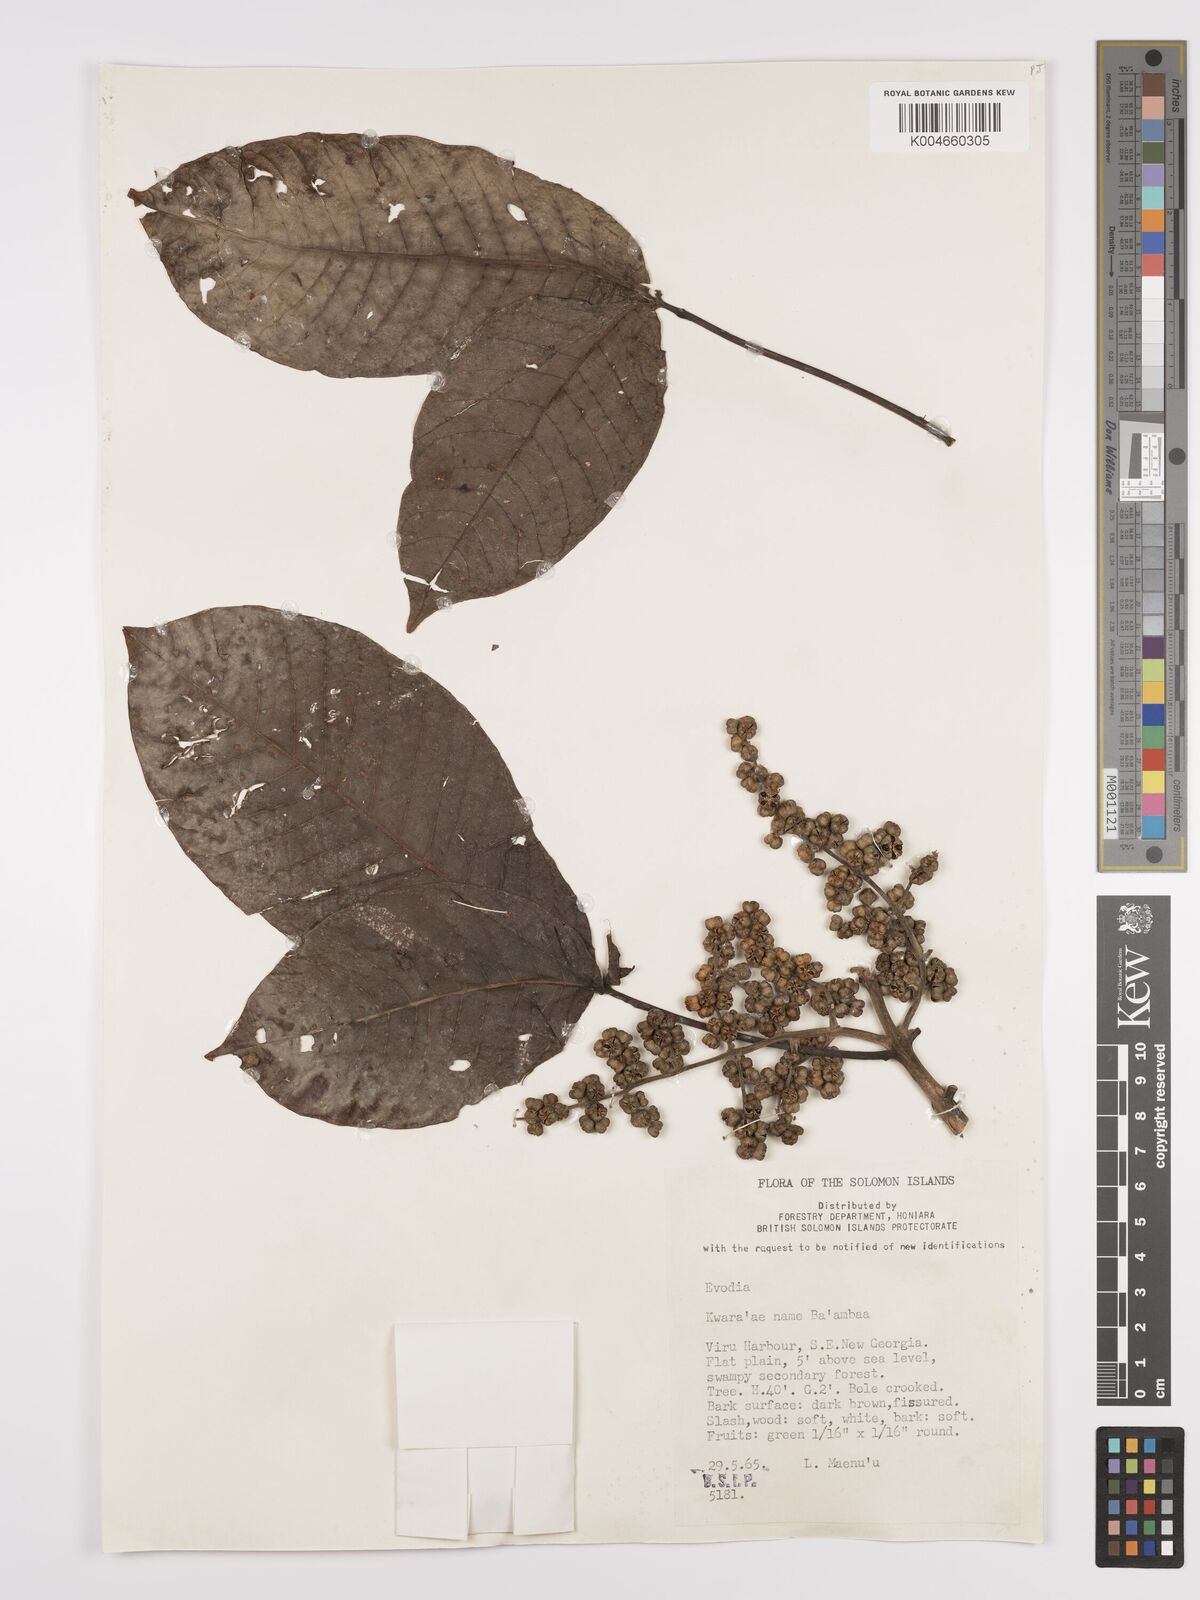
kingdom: Plantae
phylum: Tracheophyta
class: Magnoliopsida
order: Sapindales
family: Rutaceae
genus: Euodia
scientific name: Euodia
